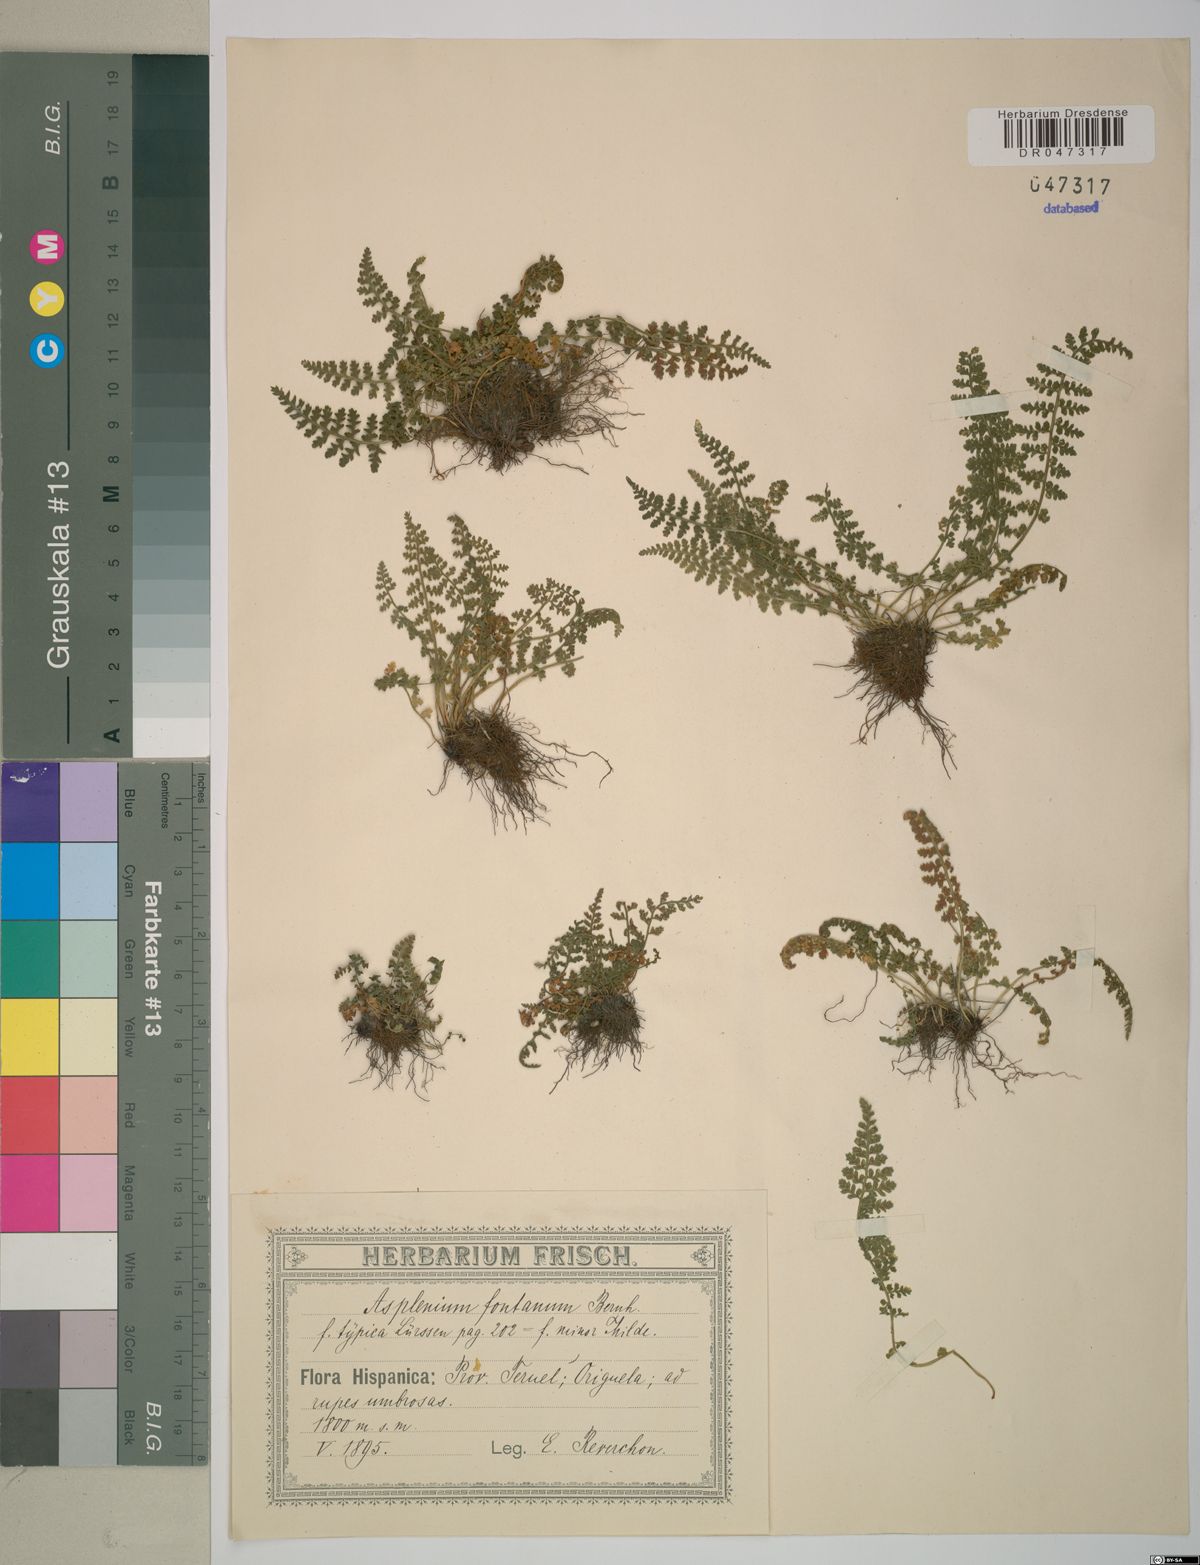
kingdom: Plantae
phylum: Tracheophyta
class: Polypodiopsida
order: Polypodiales
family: Aspleniaceae
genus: Asplenium
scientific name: Asplenium fontanum
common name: Fountain spleenwort
